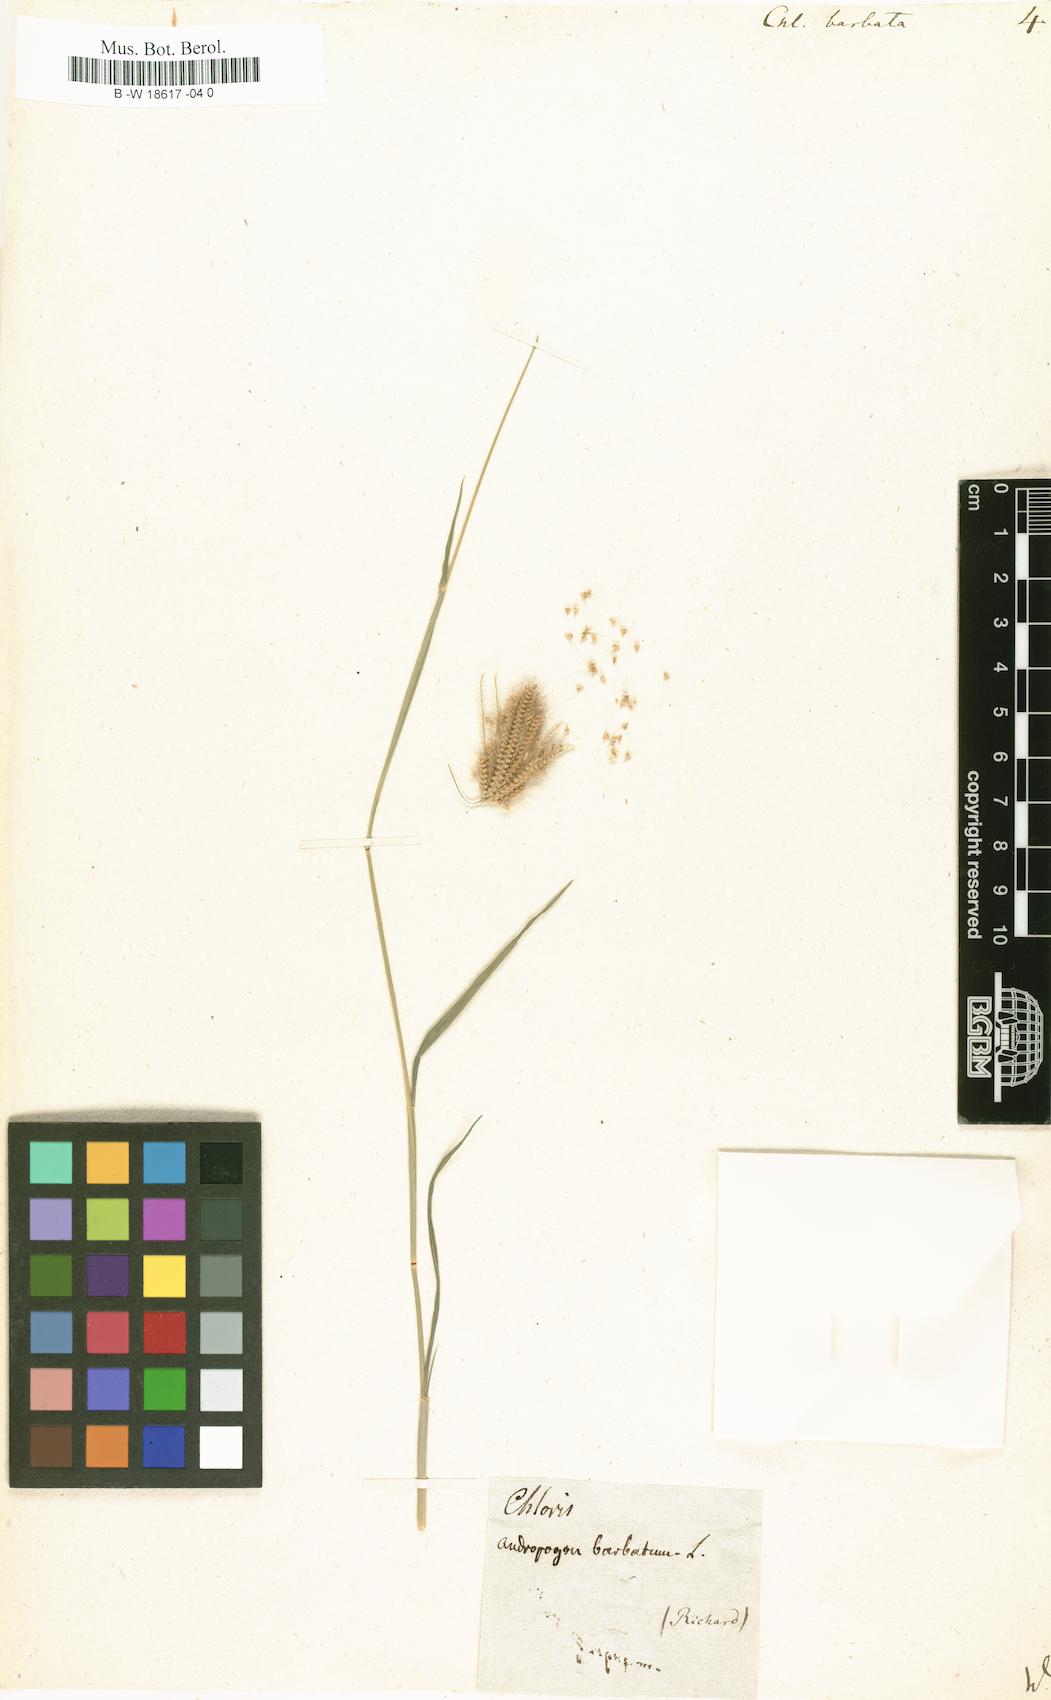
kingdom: Plantae
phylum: Tracheophyta
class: Liliopsida
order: Poales
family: Poaceae
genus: Chloris
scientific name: Chloris barbata
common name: Swollen fingergrass
